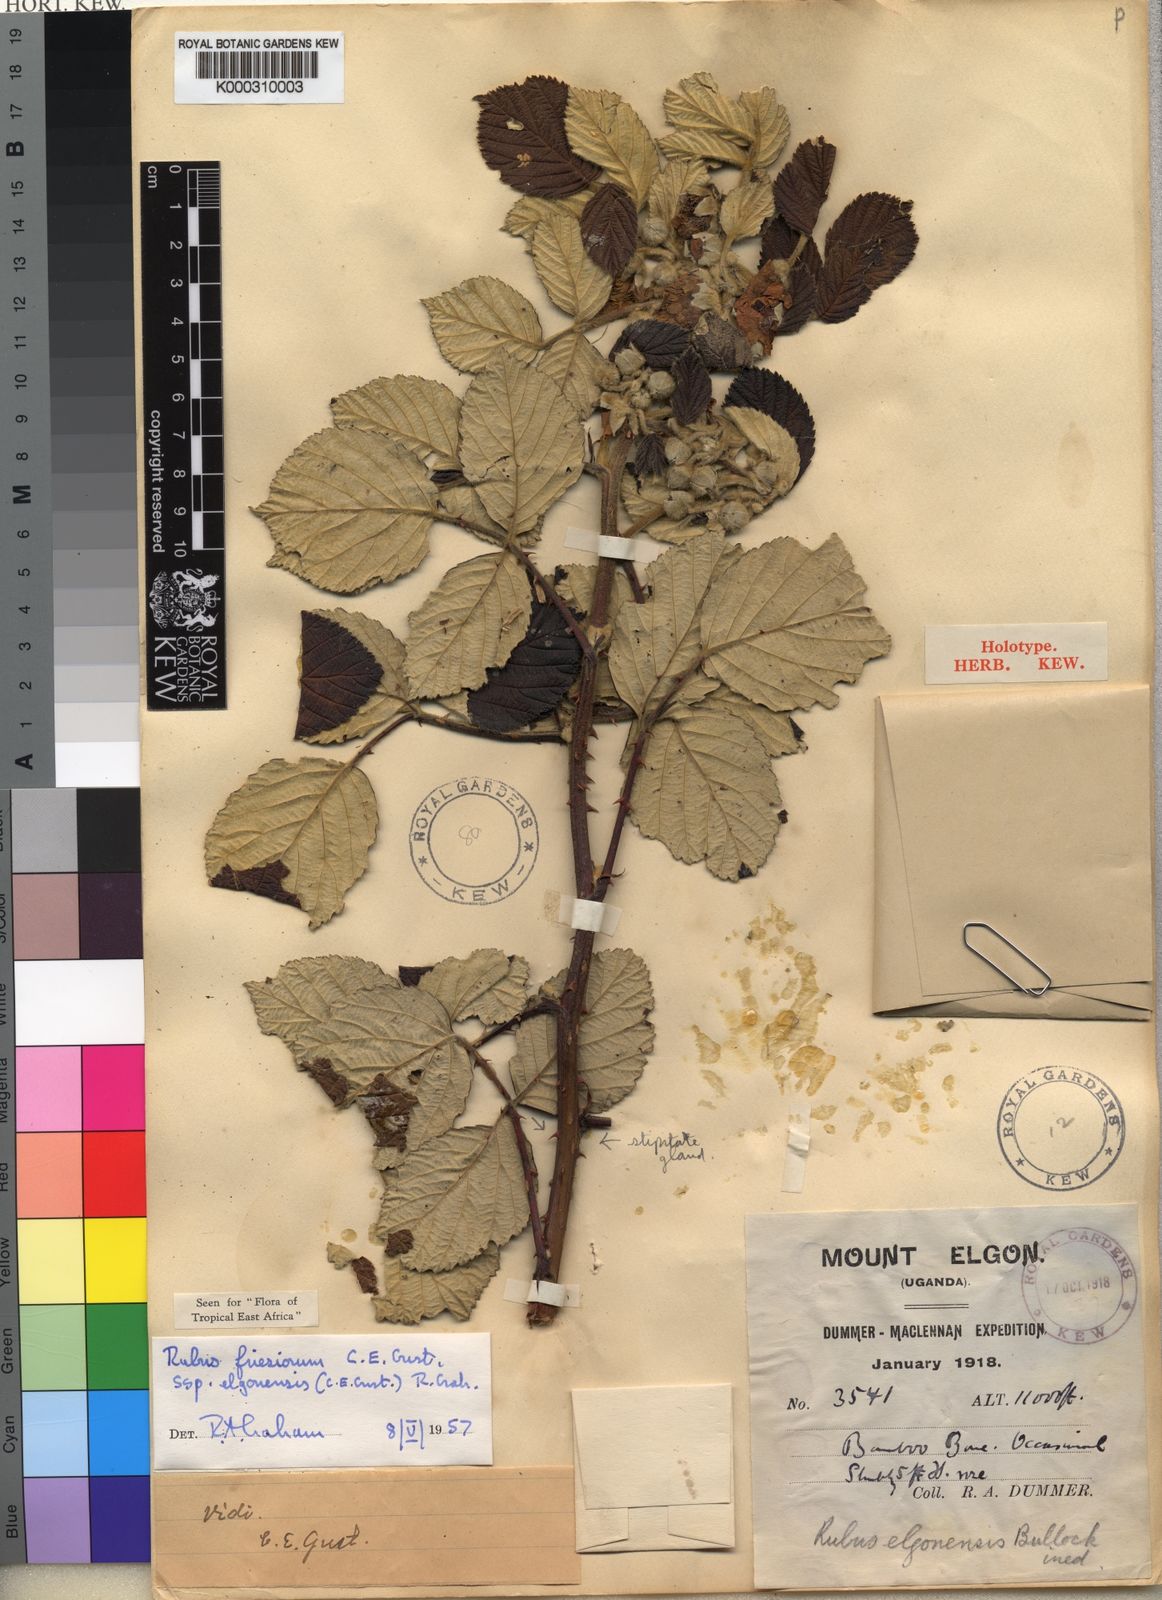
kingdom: Plantae
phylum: Tracheophyta
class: Magnoliopsida
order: Rosales
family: Rosaceae
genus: Rubus
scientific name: Rubus friesiorum
